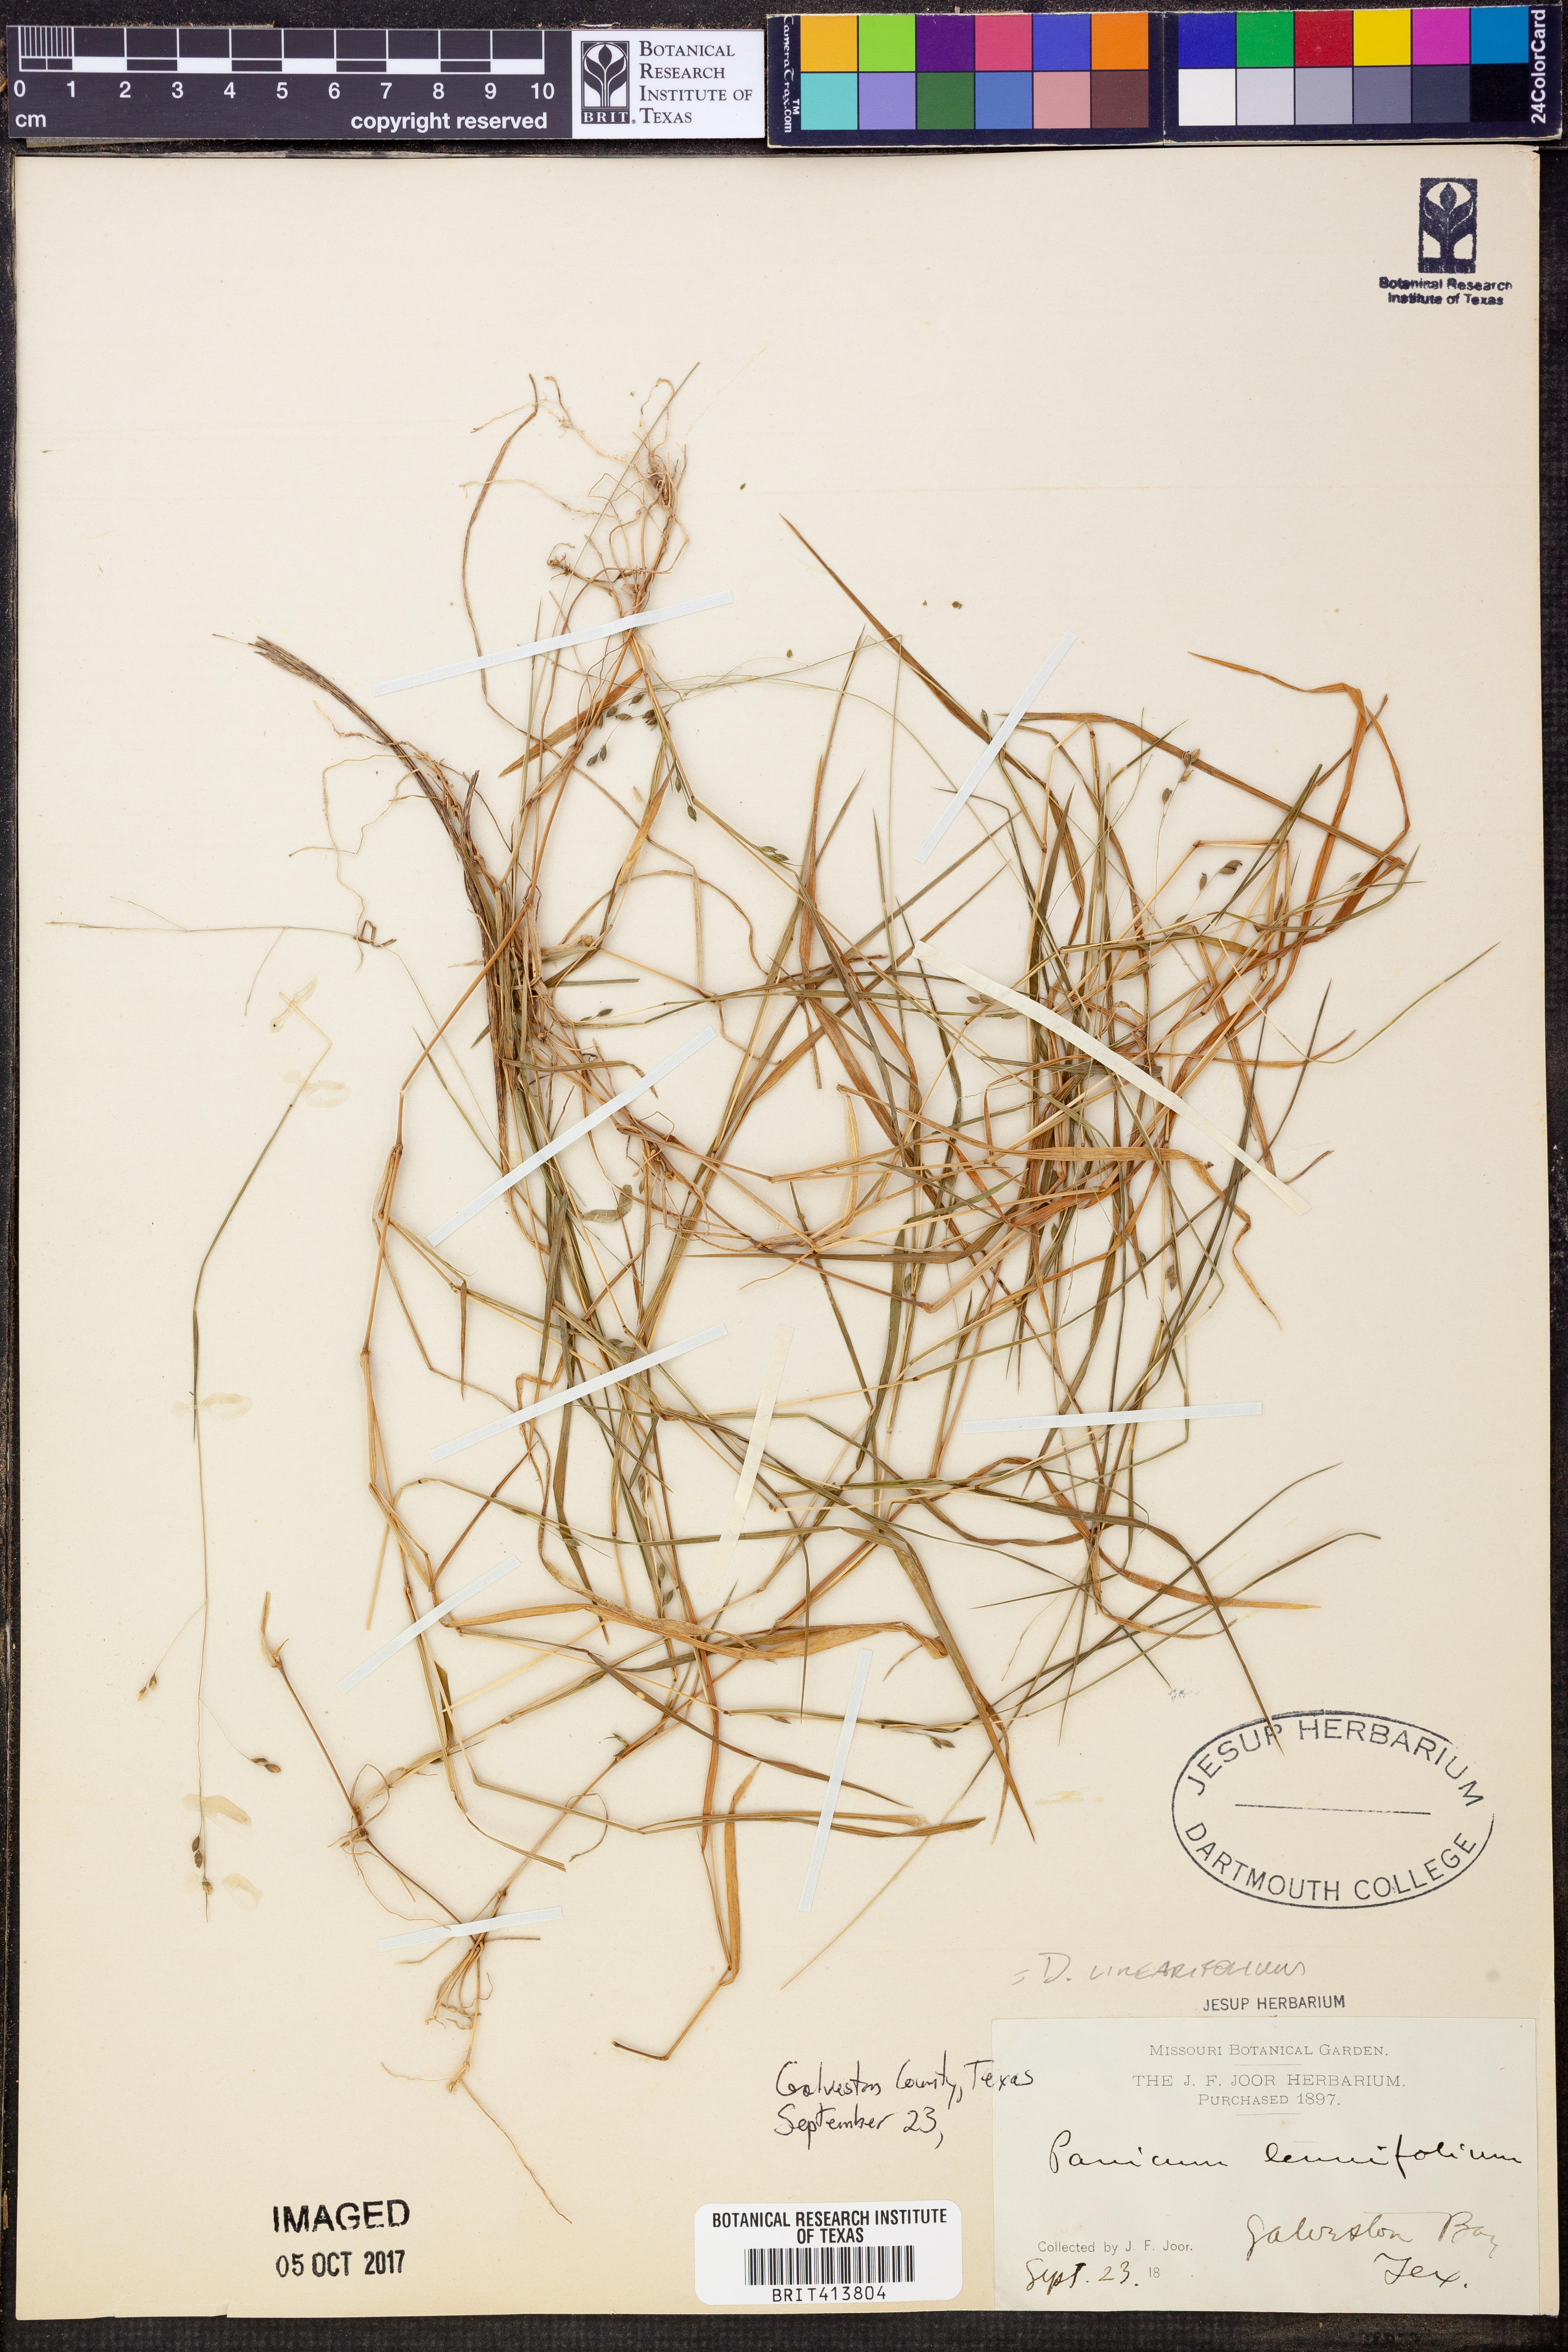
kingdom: Plantae
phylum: Tracheophyta
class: Liliopsida
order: Poales
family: Poaceae
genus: Dichanthelium
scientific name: Dichanthelium linearifolium
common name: Linear-leaved panicgrass
